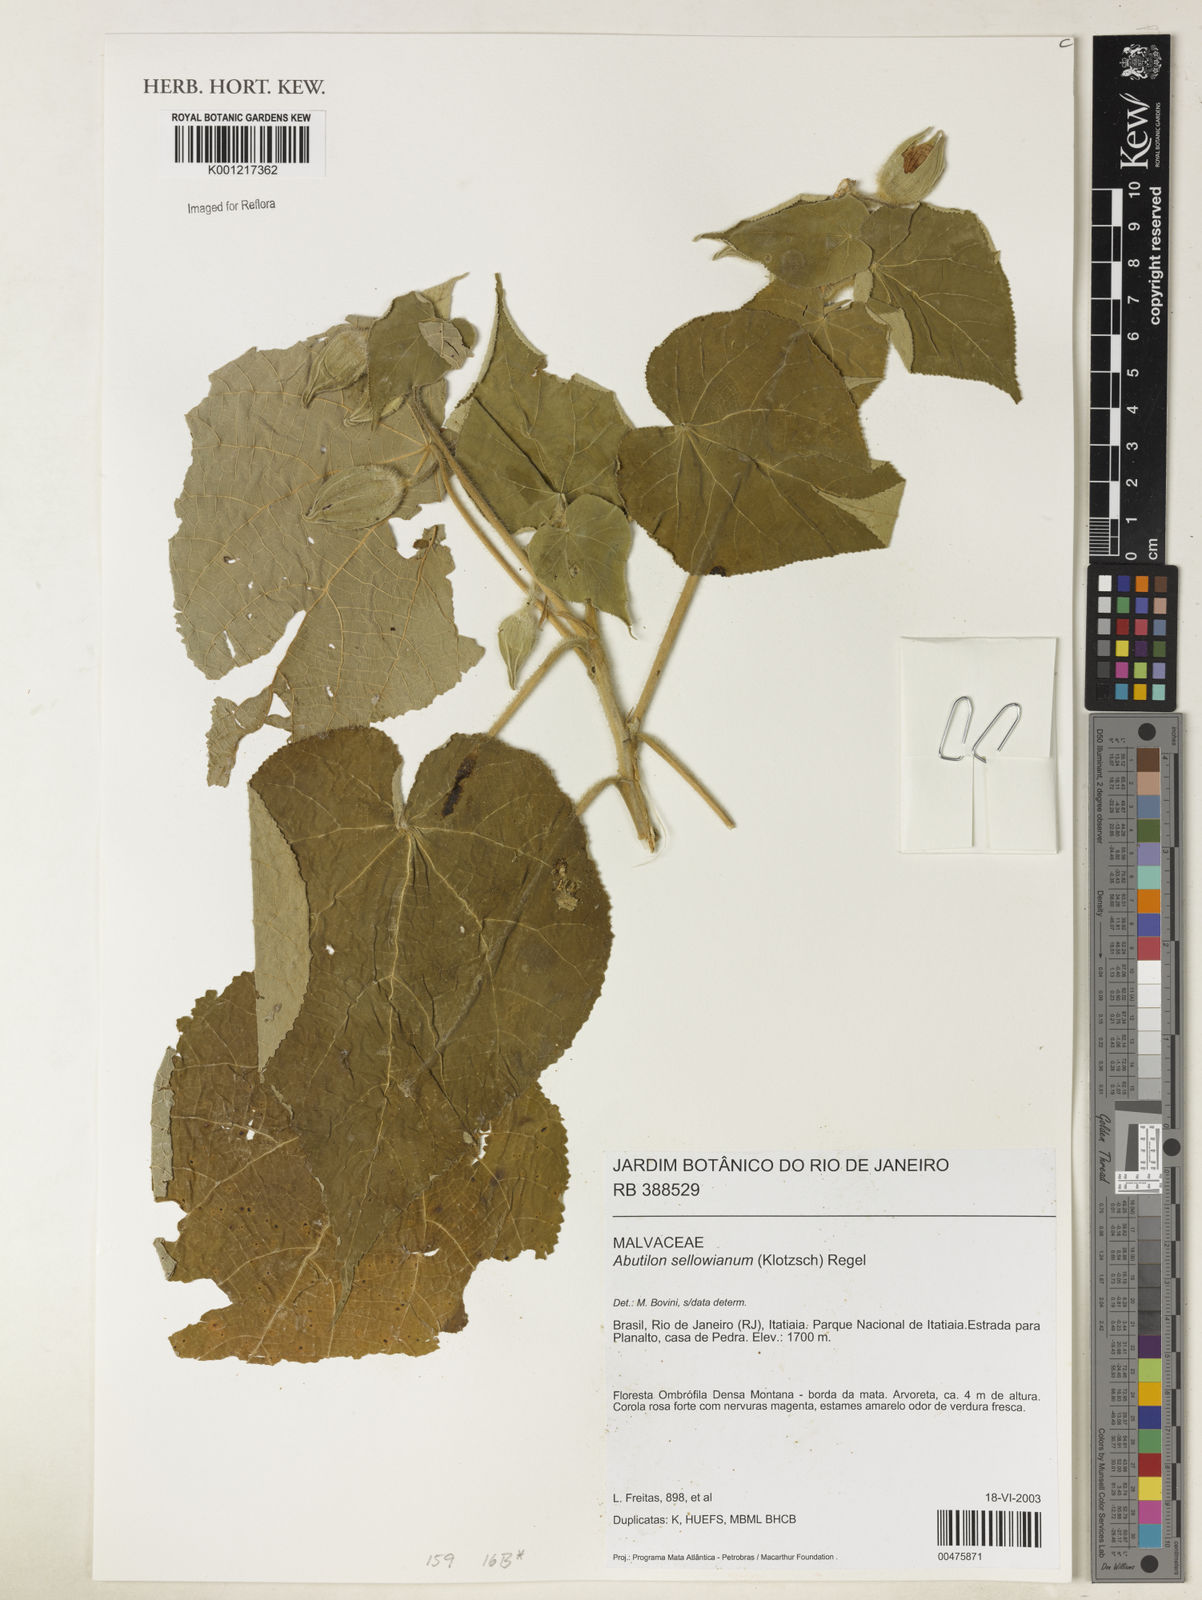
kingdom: Plantae
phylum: Tracheophyta
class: Magnoliopsida
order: Malvales
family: Malvaceae
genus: Callianthe
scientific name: Callianthe sellowiana
